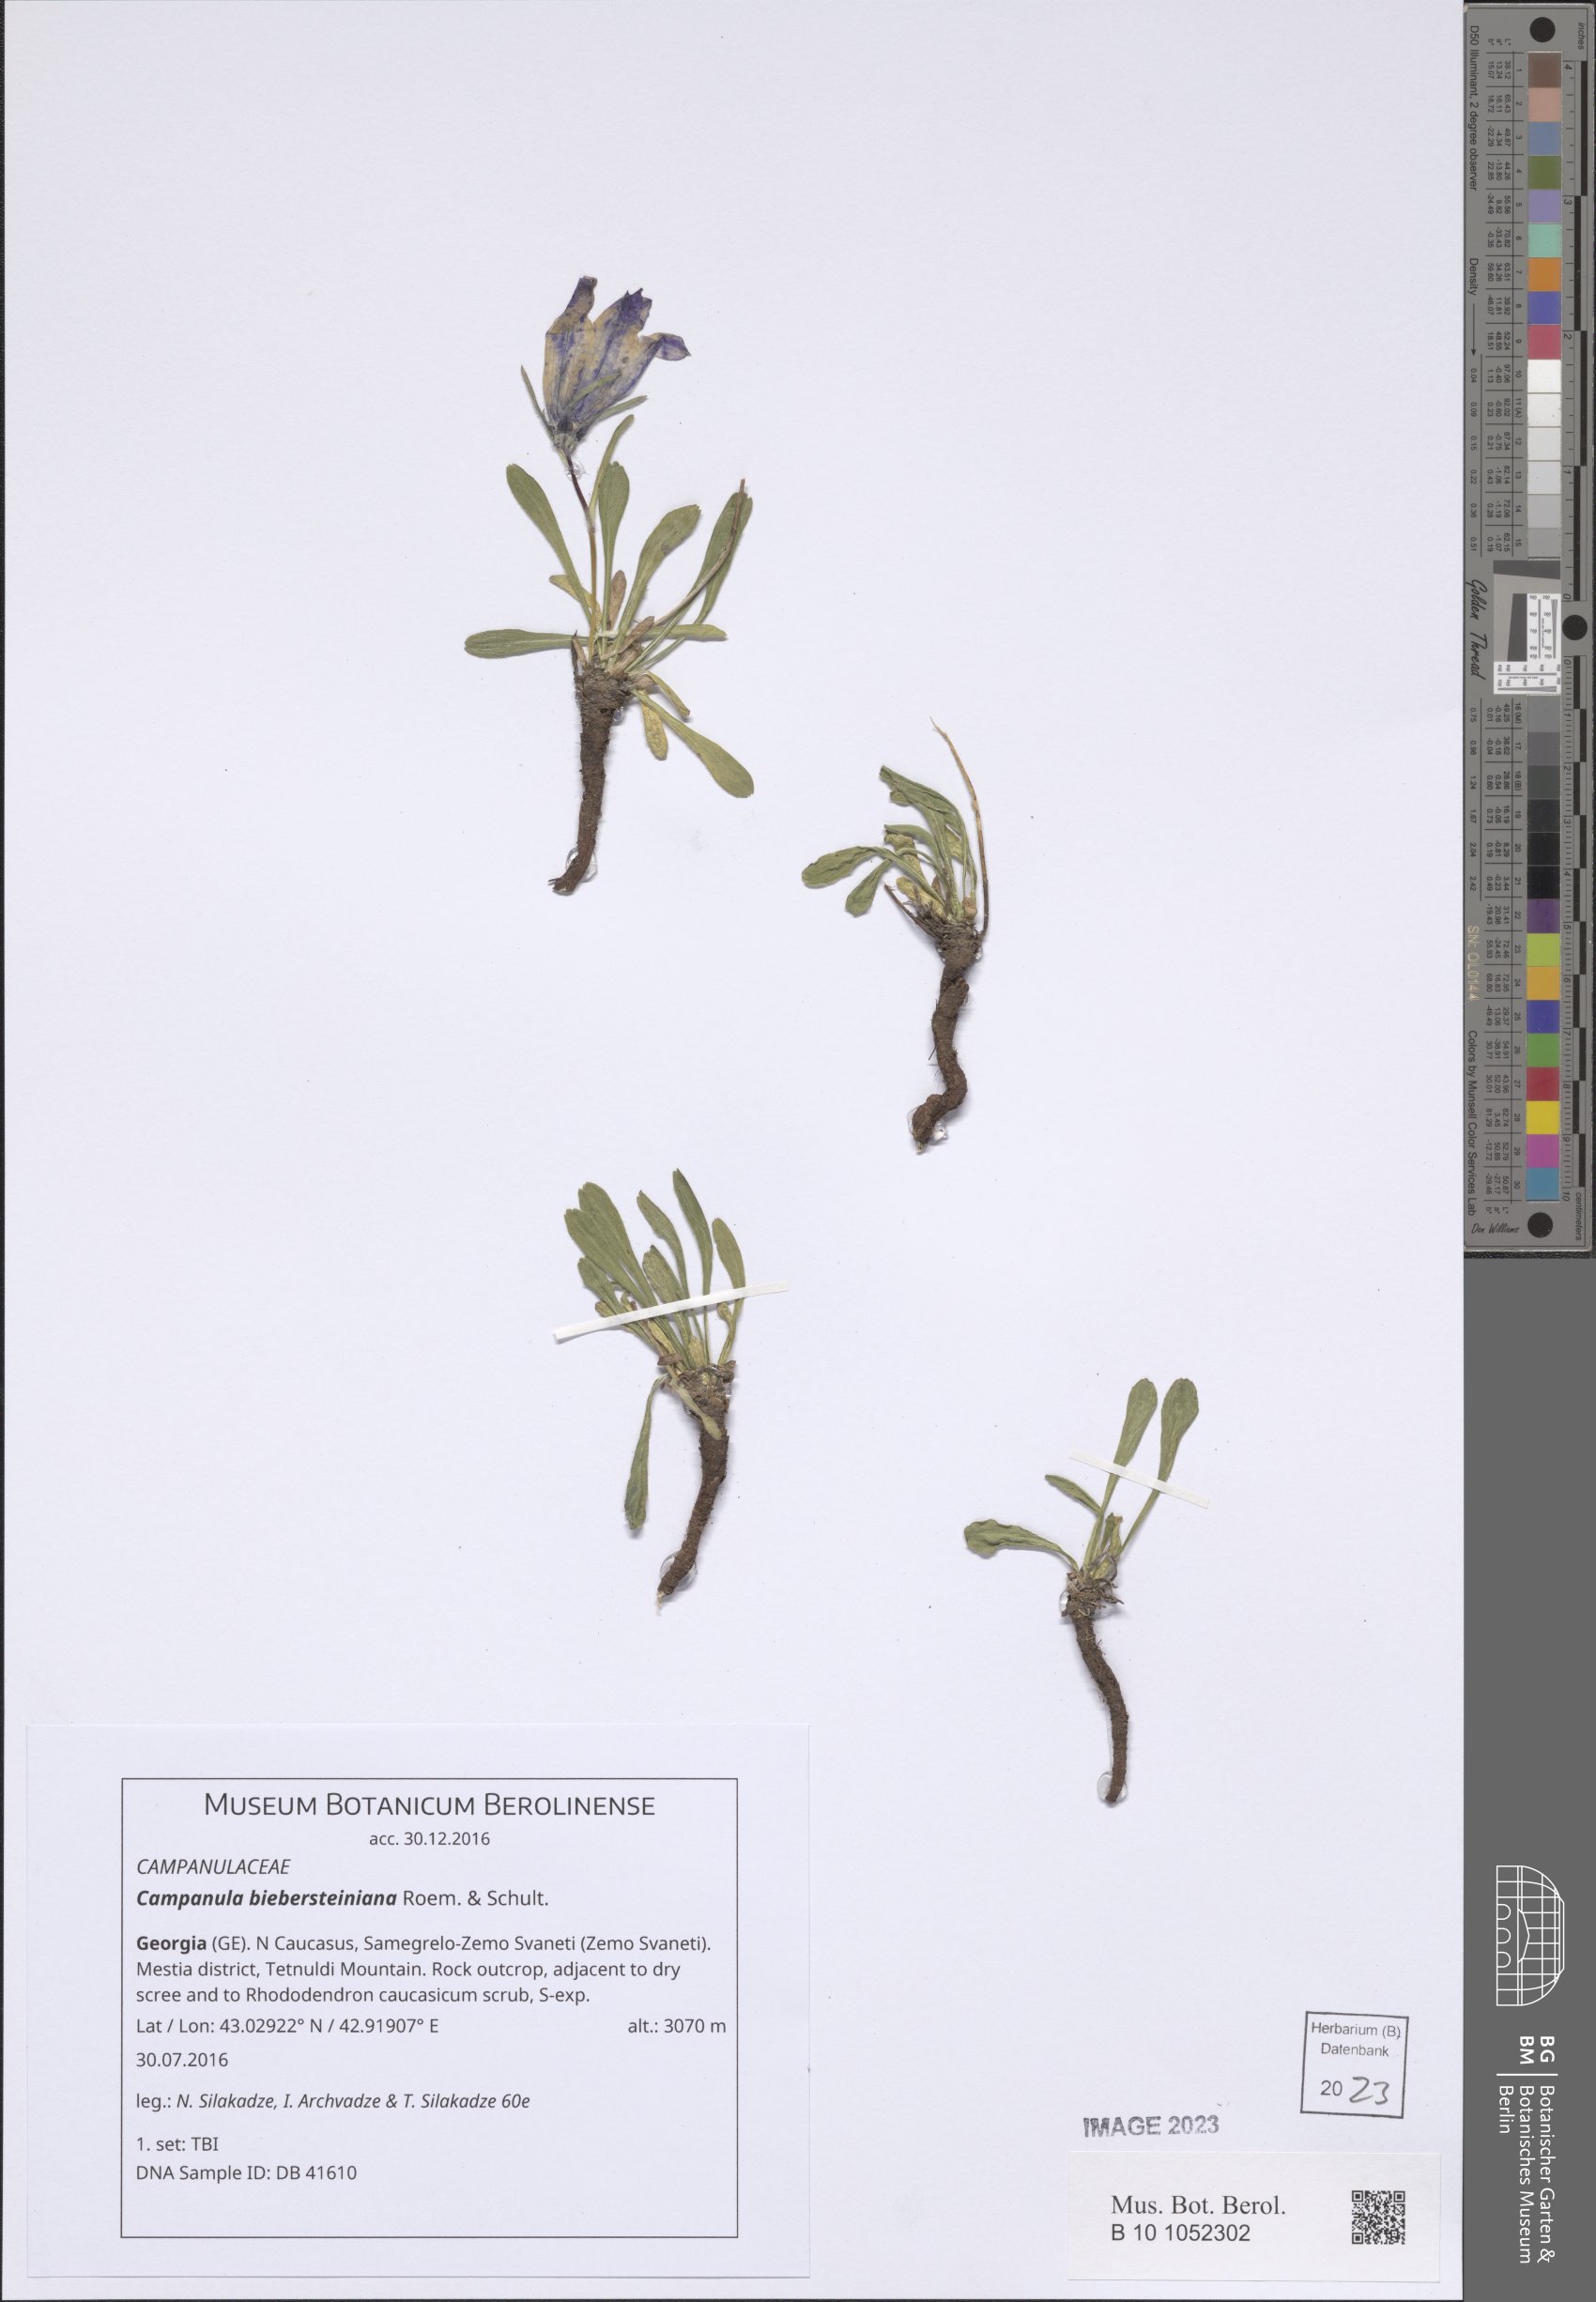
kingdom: Plantae
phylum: Tracheophyta
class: Magnoliopsida
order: Asterales
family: Campanulaceae
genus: Campanula
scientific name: Campanula tridentata
